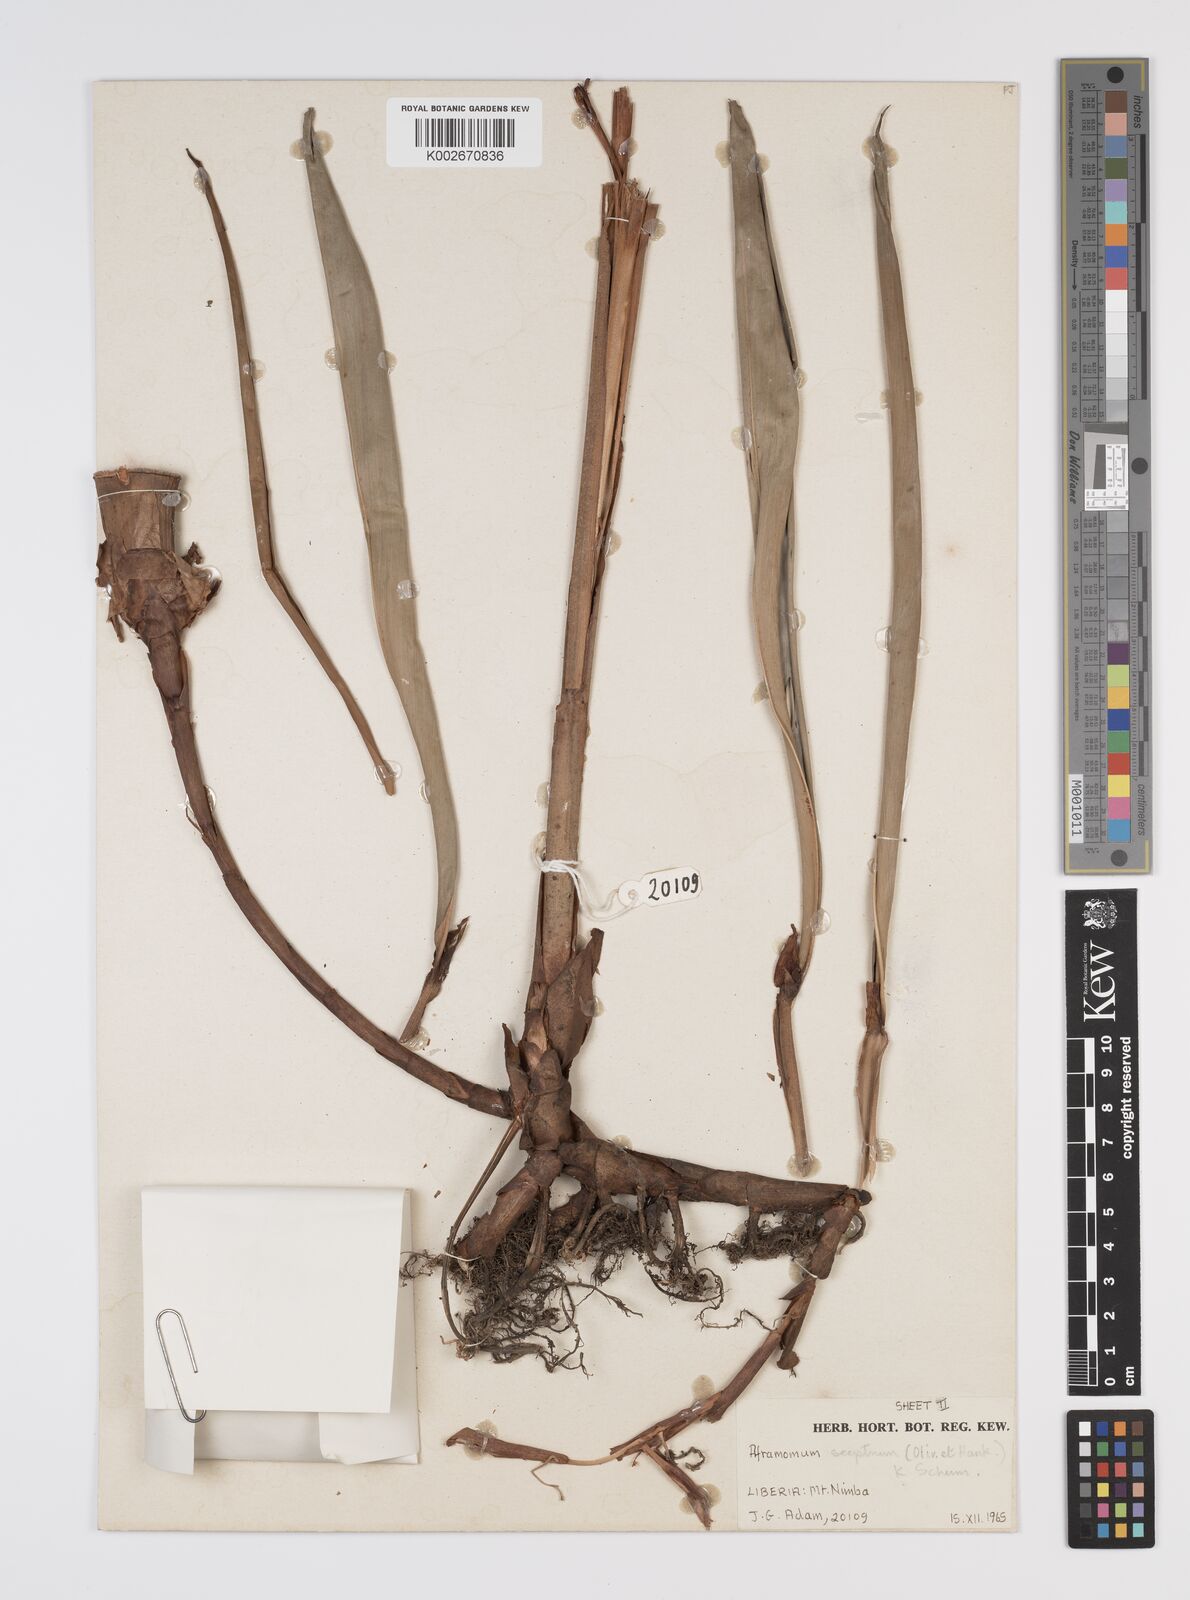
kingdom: Plantae
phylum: Tracheophyta
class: Liliopsida
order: Zingiberales
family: Zingiberaceae
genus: Aframomum
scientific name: Aframomum cereum
